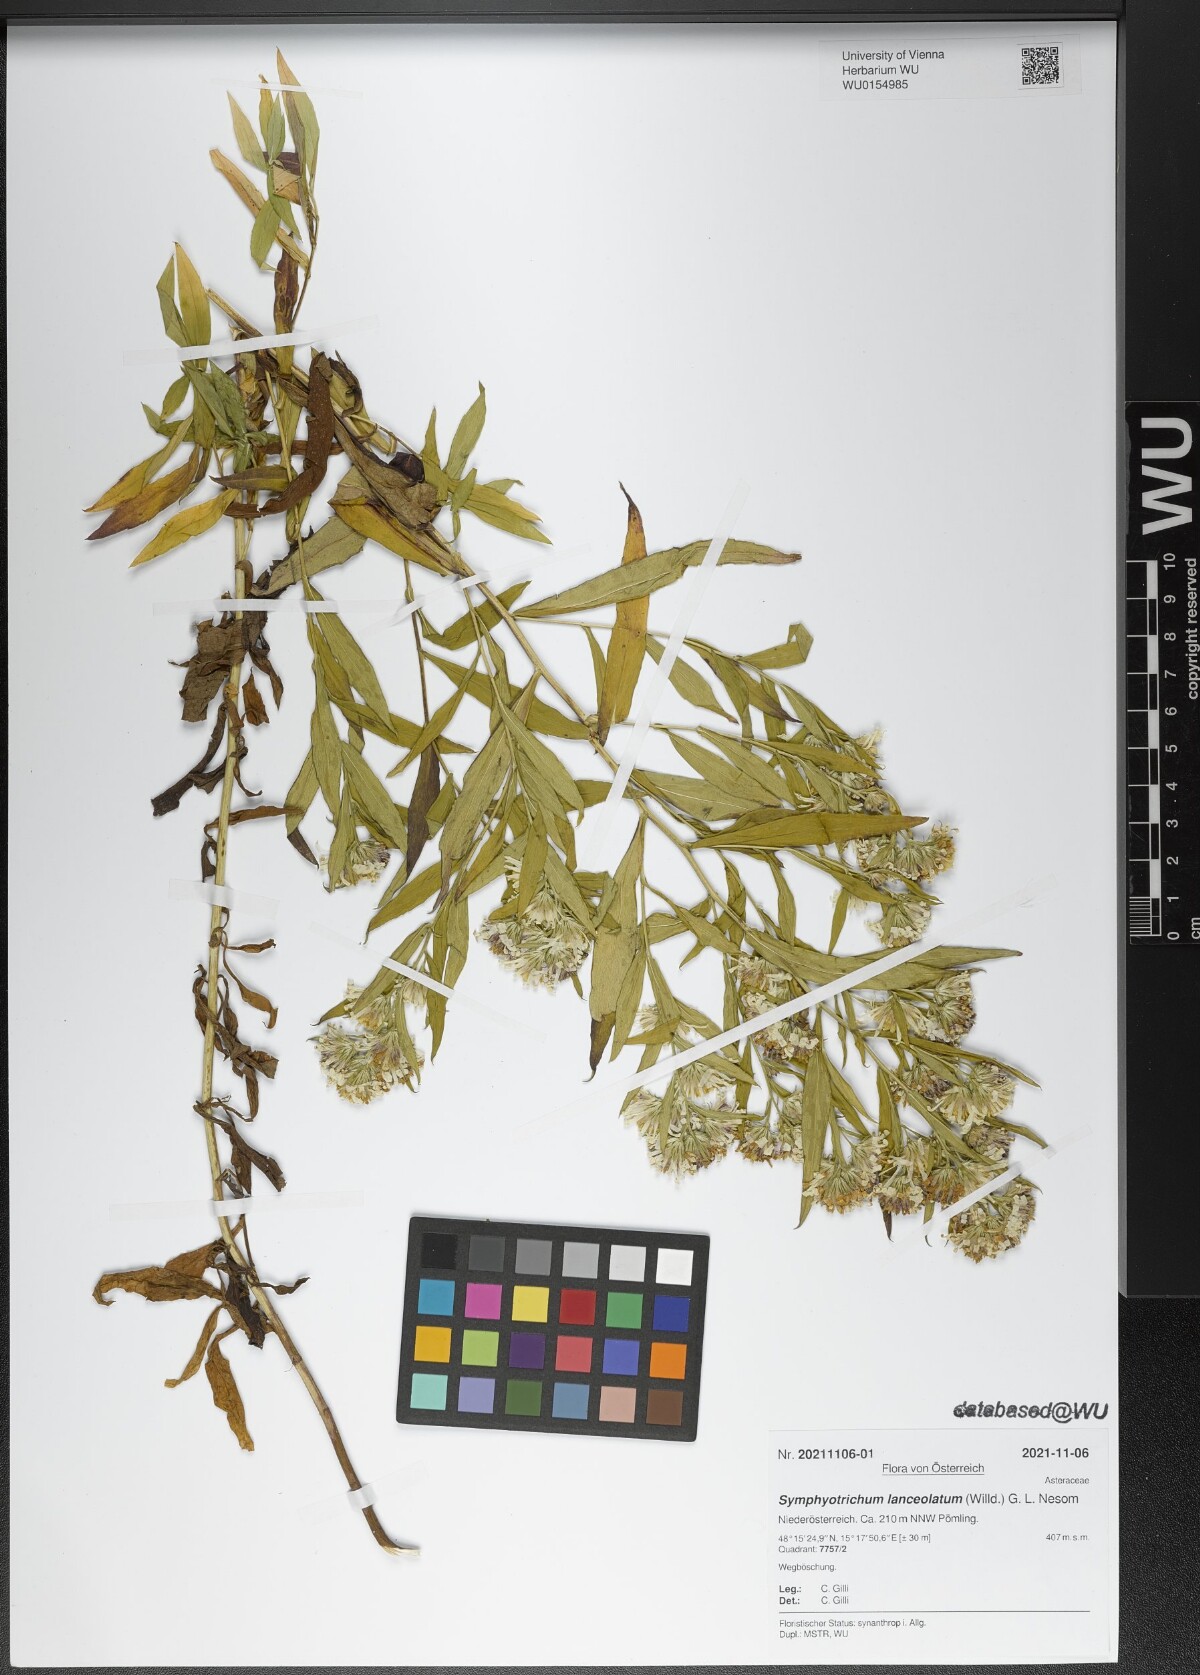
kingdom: Plantae
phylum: Tracheophyta
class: Magnoliopsida
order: Asterales
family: Asteraceae
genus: Symphyotrichum
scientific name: Symphyotrichum lanceolatum
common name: Panicled aster
